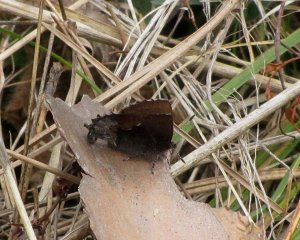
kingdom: Animalia
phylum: Arthropoda
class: Insecta
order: Lepidoptera
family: Lycaenidae
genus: Incisalia
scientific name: Incisalia henrici
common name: Henry's Elfin
